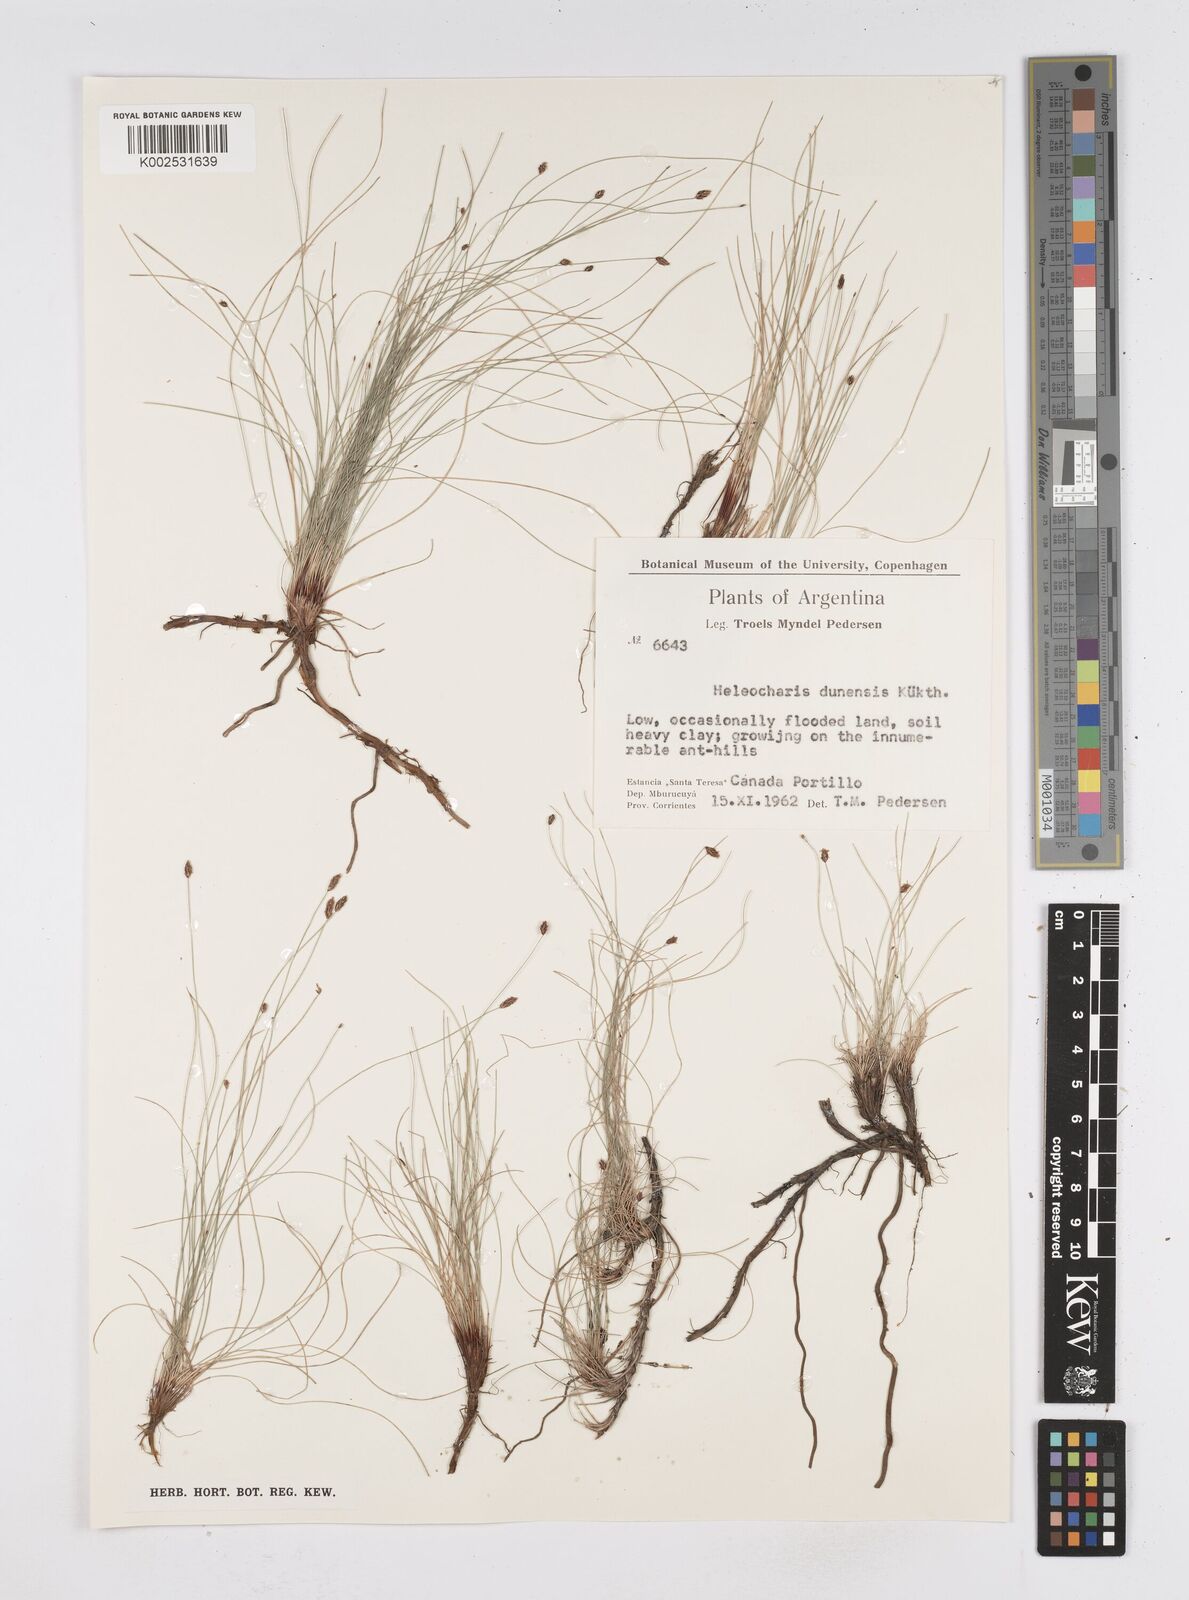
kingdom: Plantae
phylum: Tracheophyta
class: Liliopsida
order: Poales
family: Cyperaceae
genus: Eleocharis
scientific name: Eleocharis dunensis
